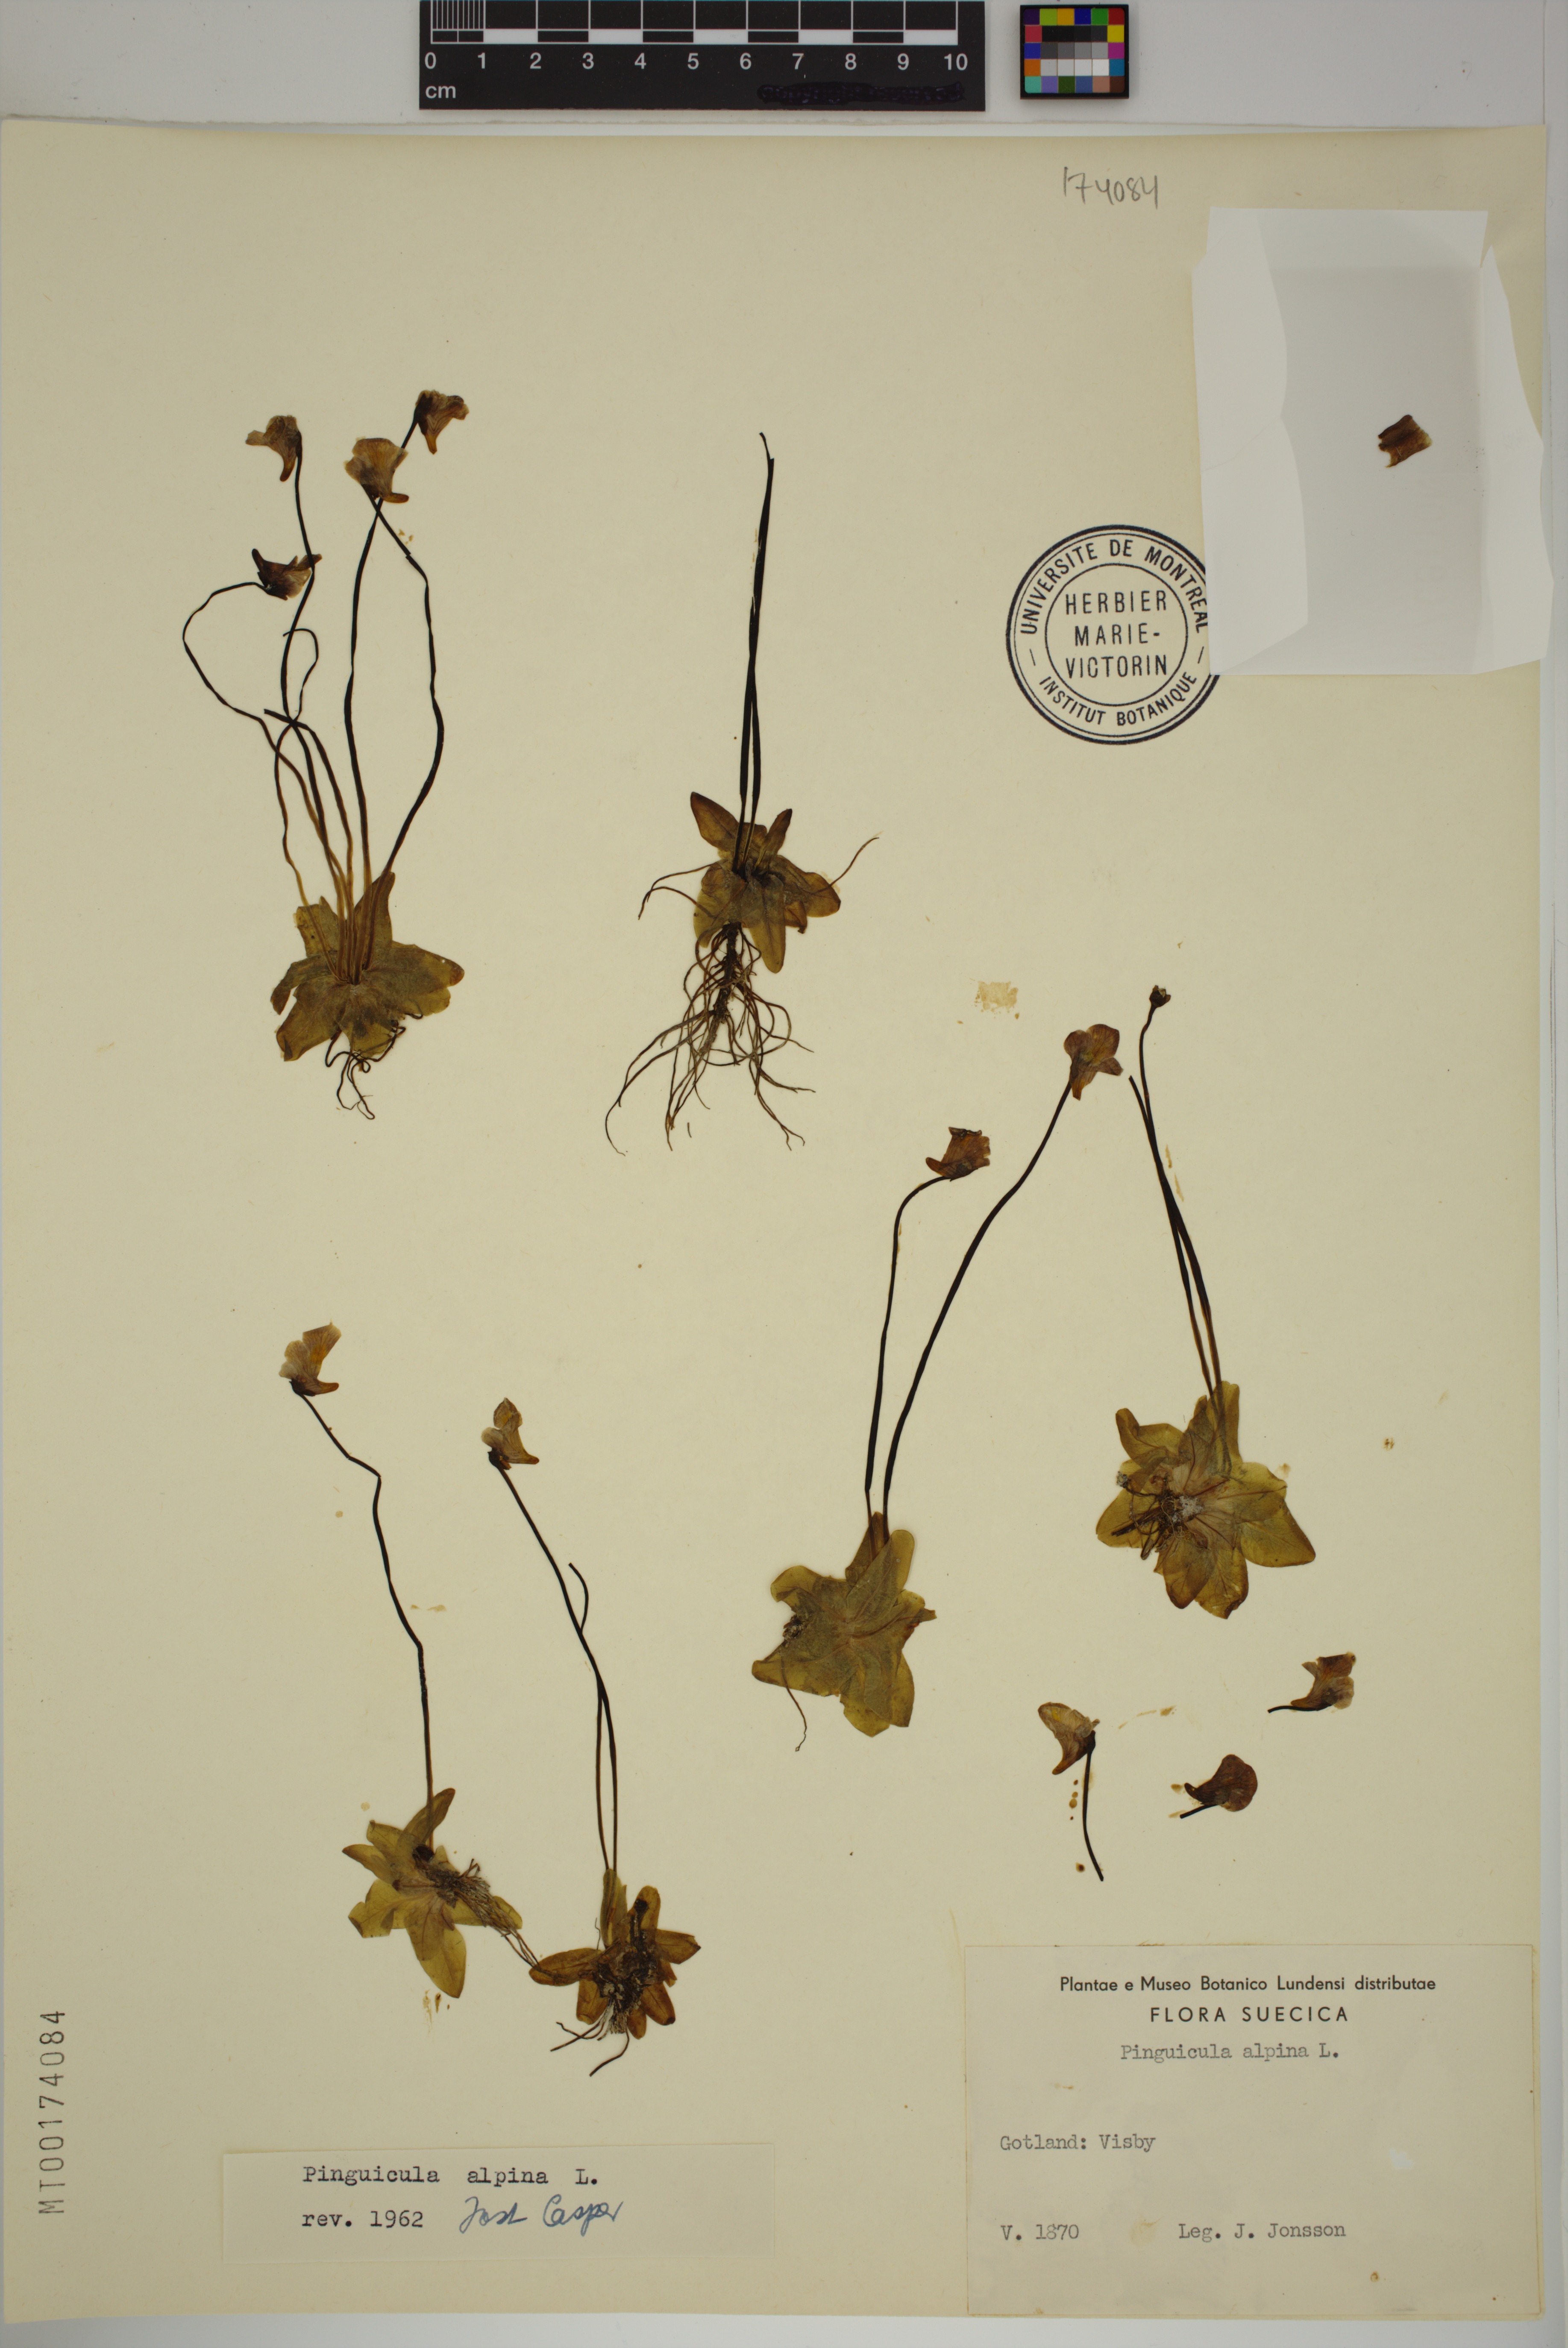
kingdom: Plantae
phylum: Tracheophyta
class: Magnoliopsida
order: Lamiales
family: Lentibulariaceae
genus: Pinguicula
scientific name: Pinguicula alpina
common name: Alpine butterwort
